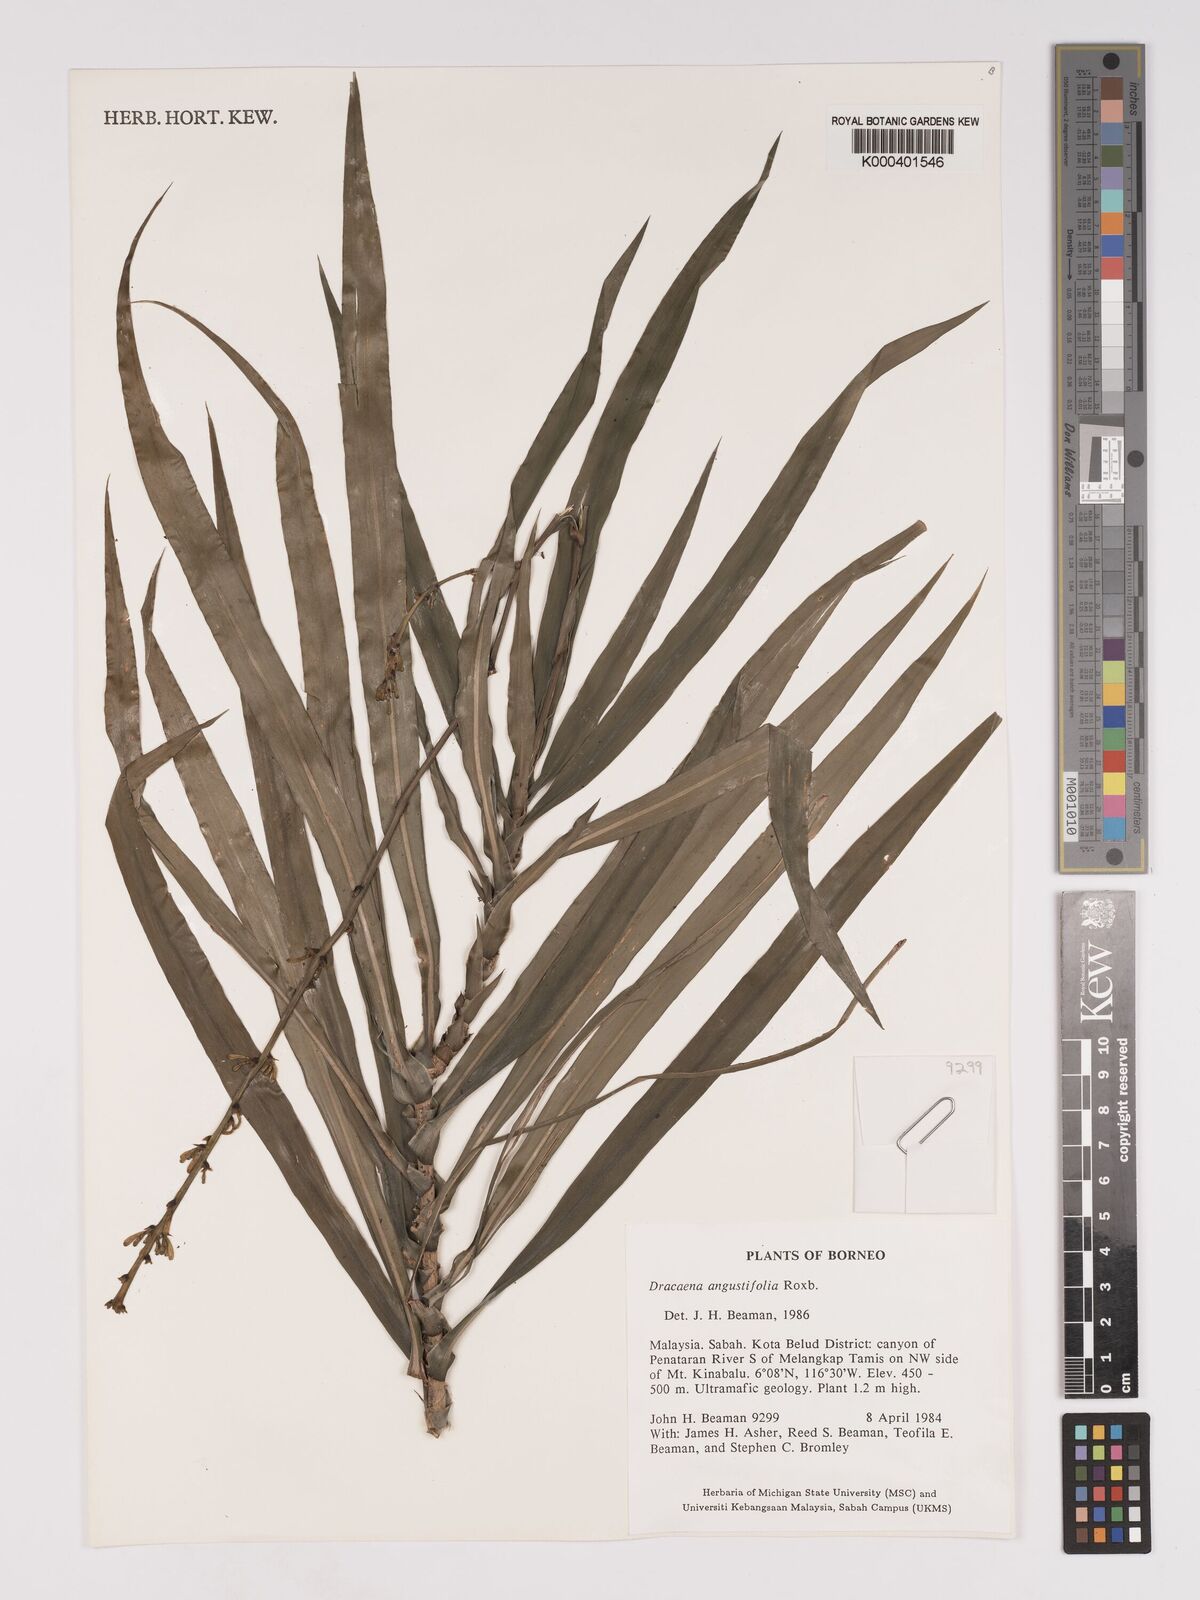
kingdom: Plantae
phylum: Tracheophyta
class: Liliopsida
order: Asparagales
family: Asparagaceae
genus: Dracaena
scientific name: Dracaena angustifolia
